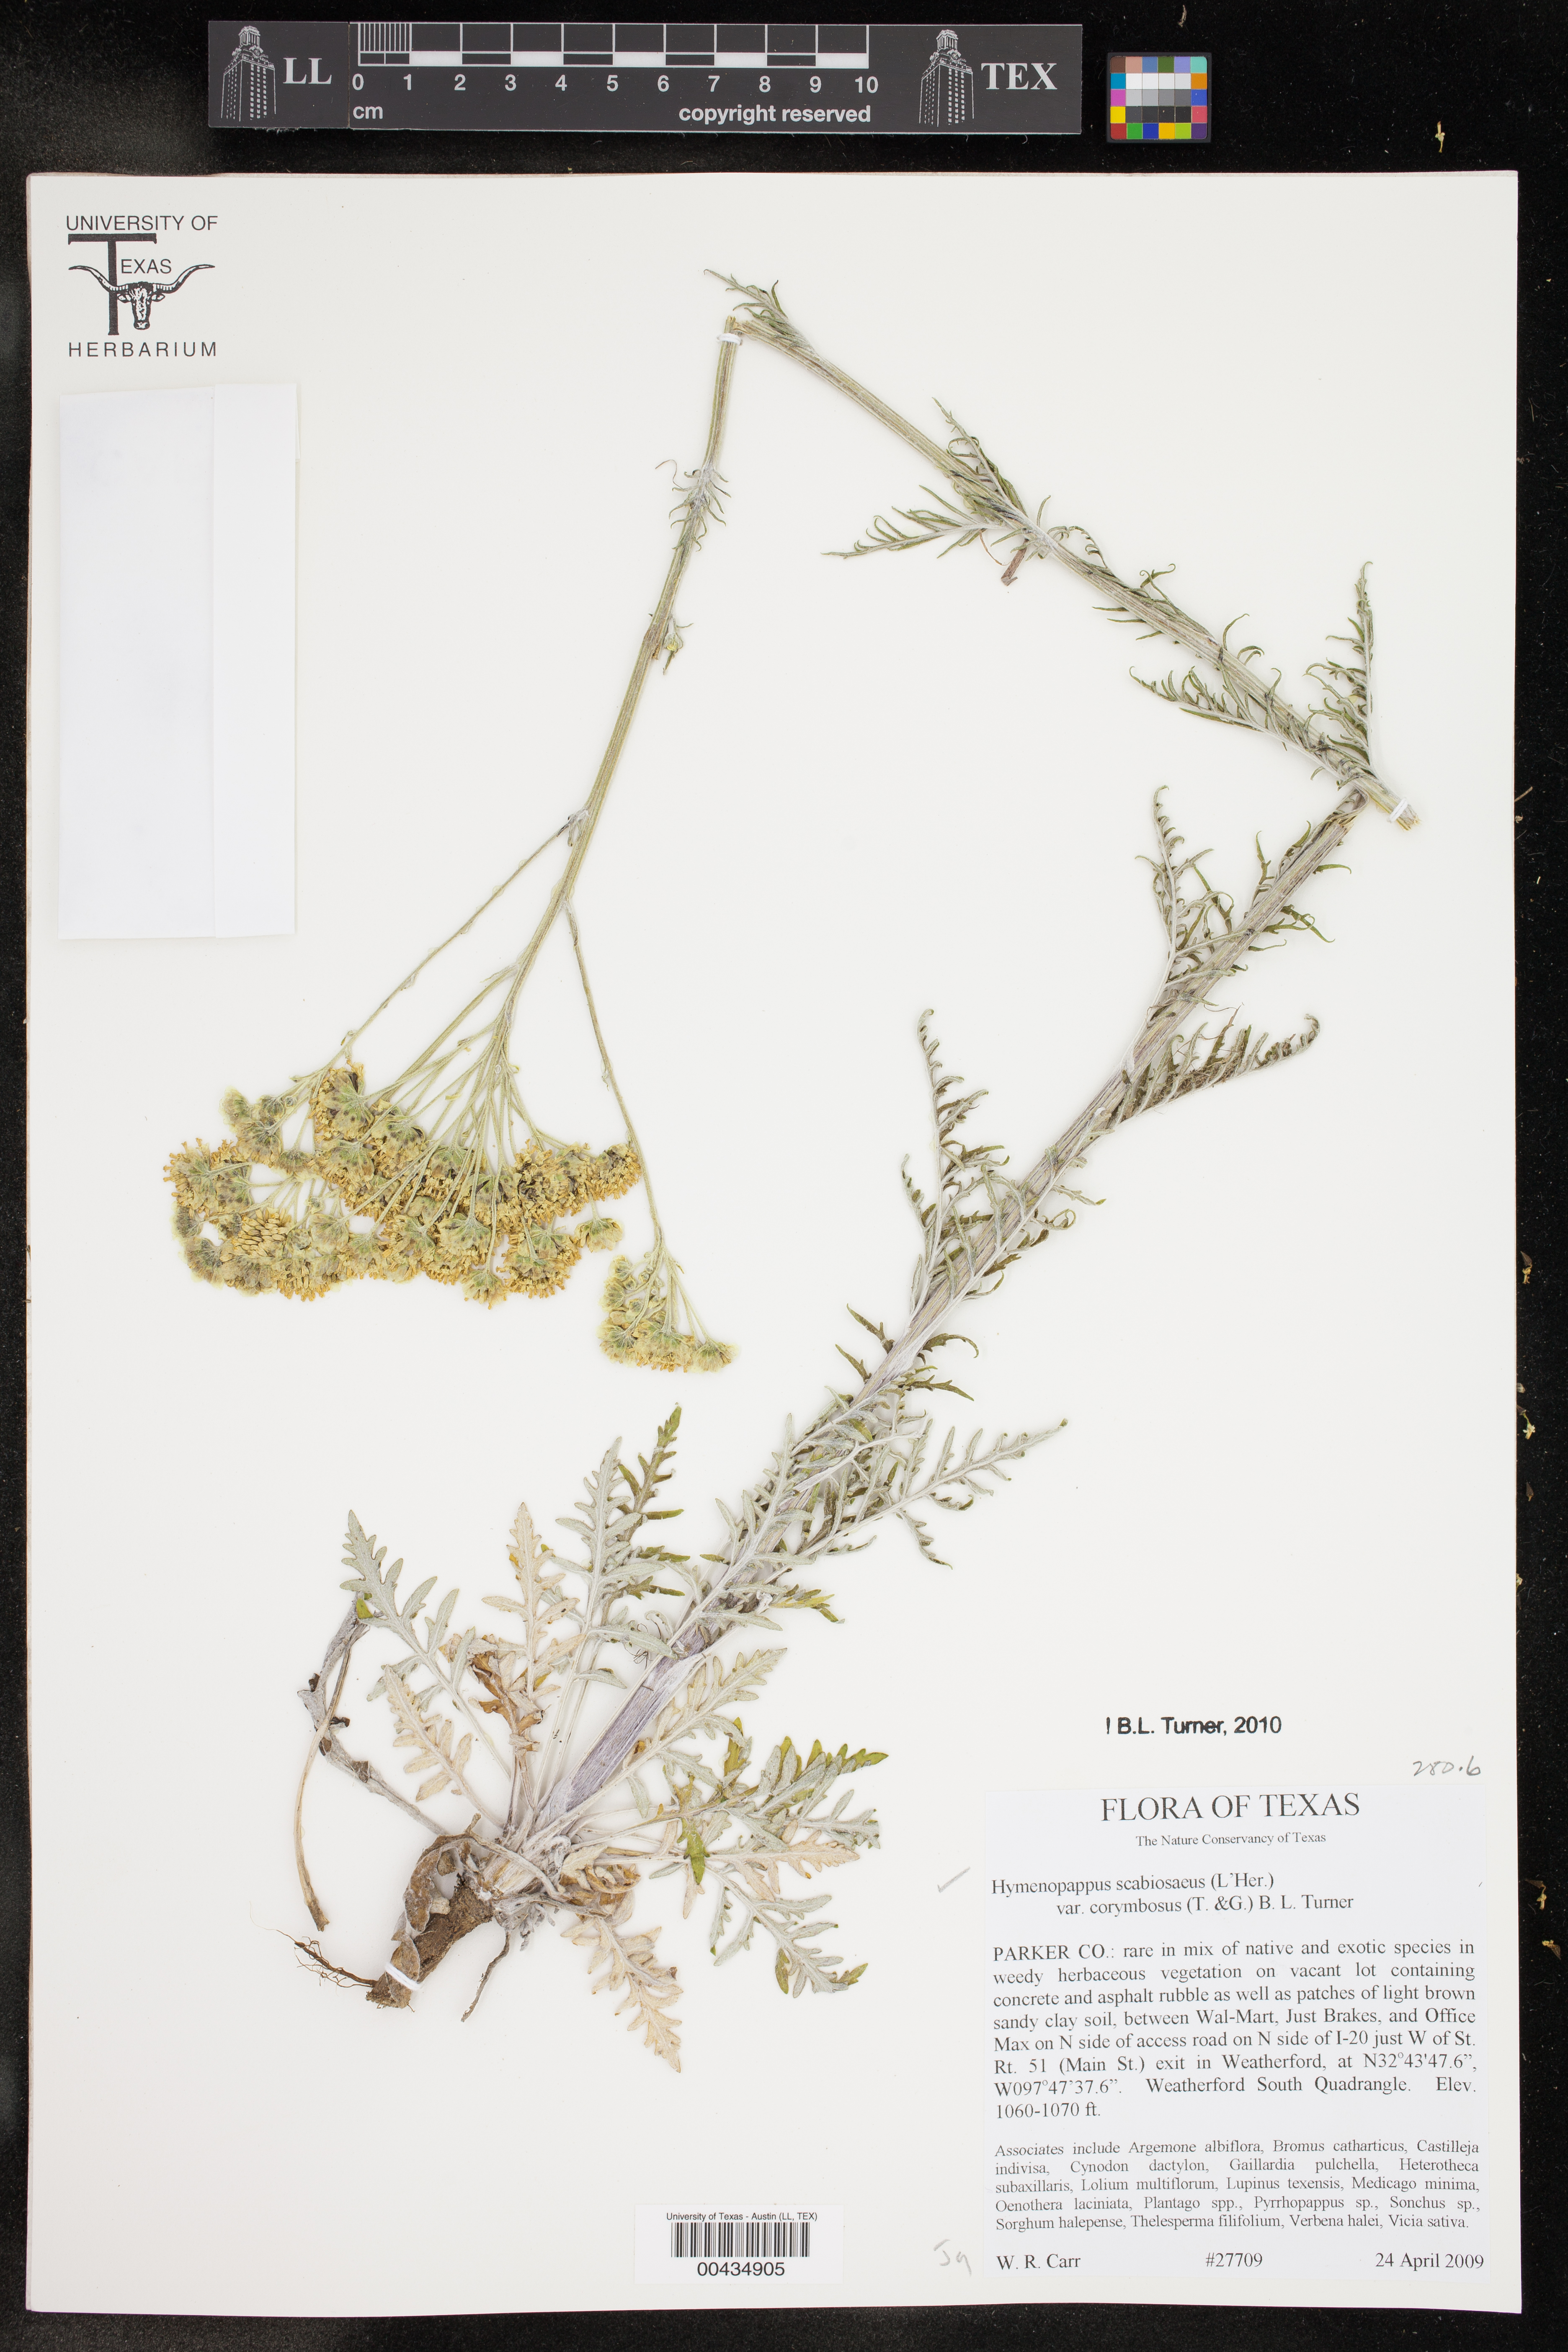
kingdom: Plantae
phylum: Tracheophyta
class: Magnoliopsida
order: Asterales
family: Asteraceae
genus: Hymenopappus
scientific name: Hymenopappus scabiosaeus
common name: Carolina woollywhite
